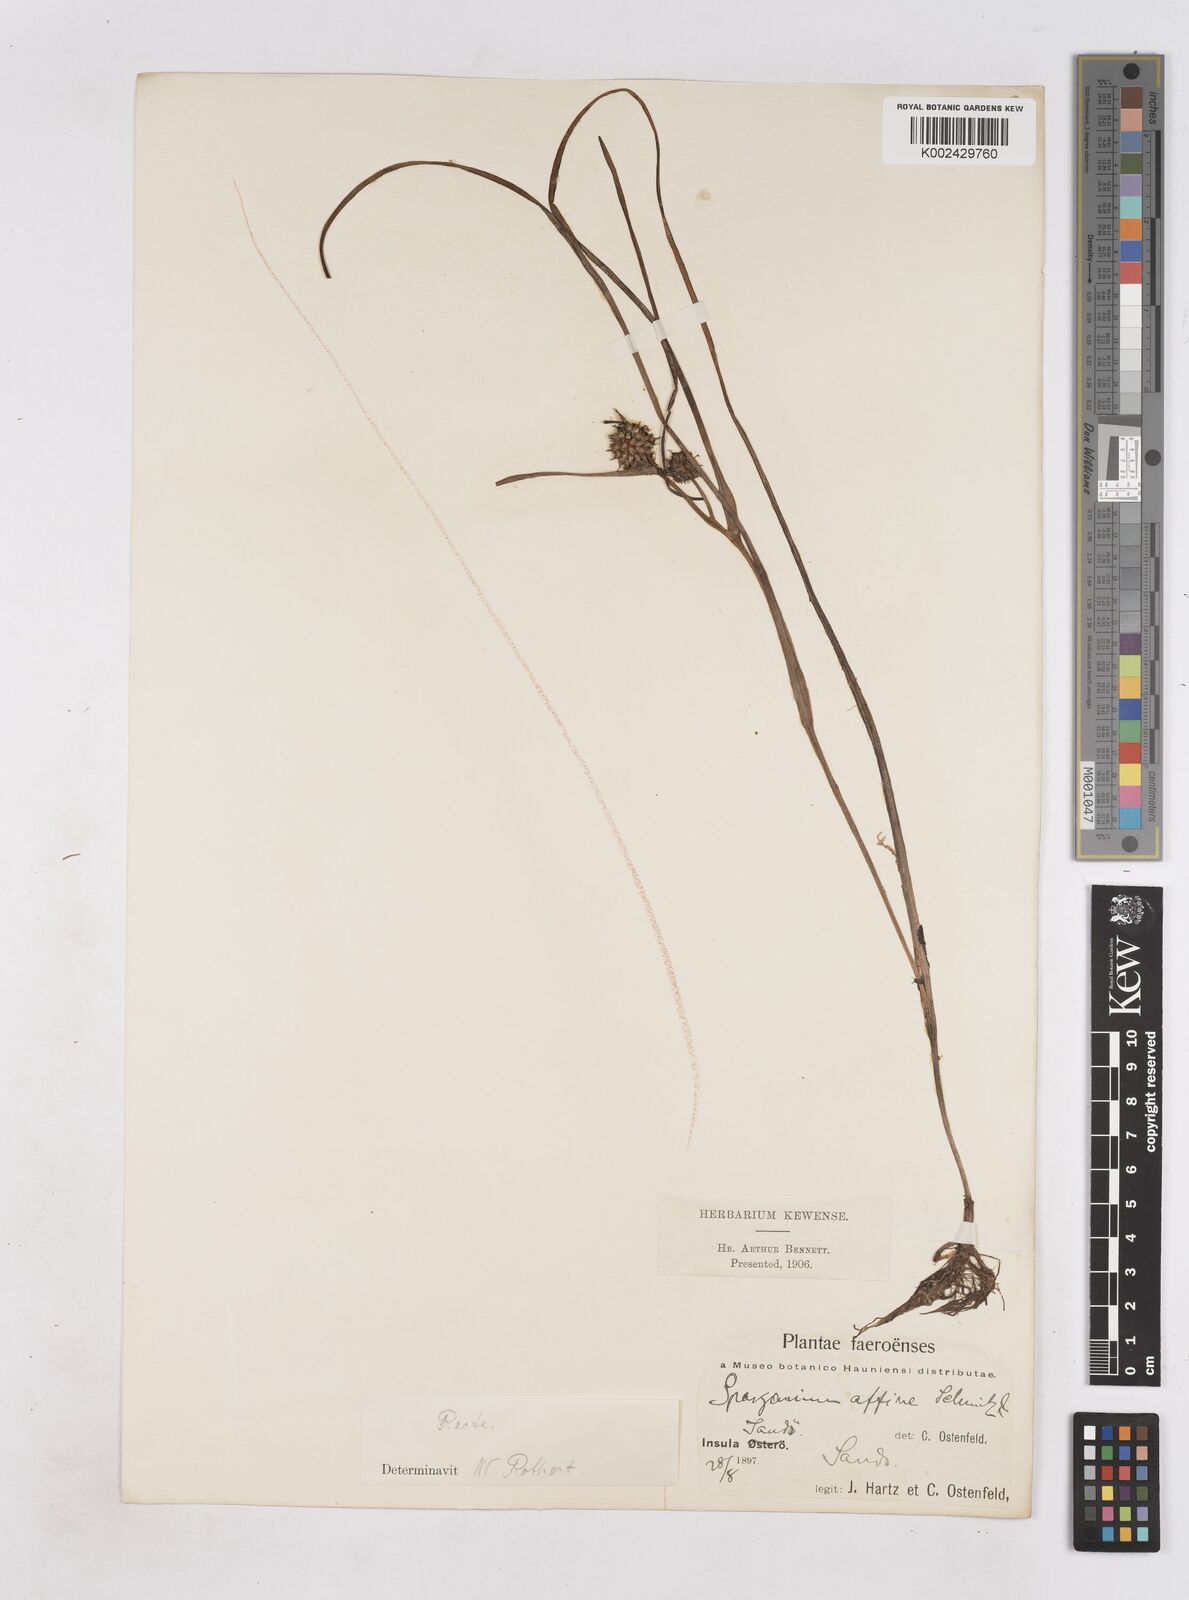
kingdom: Plantae
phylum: Tracheophyta
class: Liliopsida
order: Poales
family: Typhaceae
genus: Sparganium
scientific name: Sparganium angustifolium
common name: Floating bur-reed
